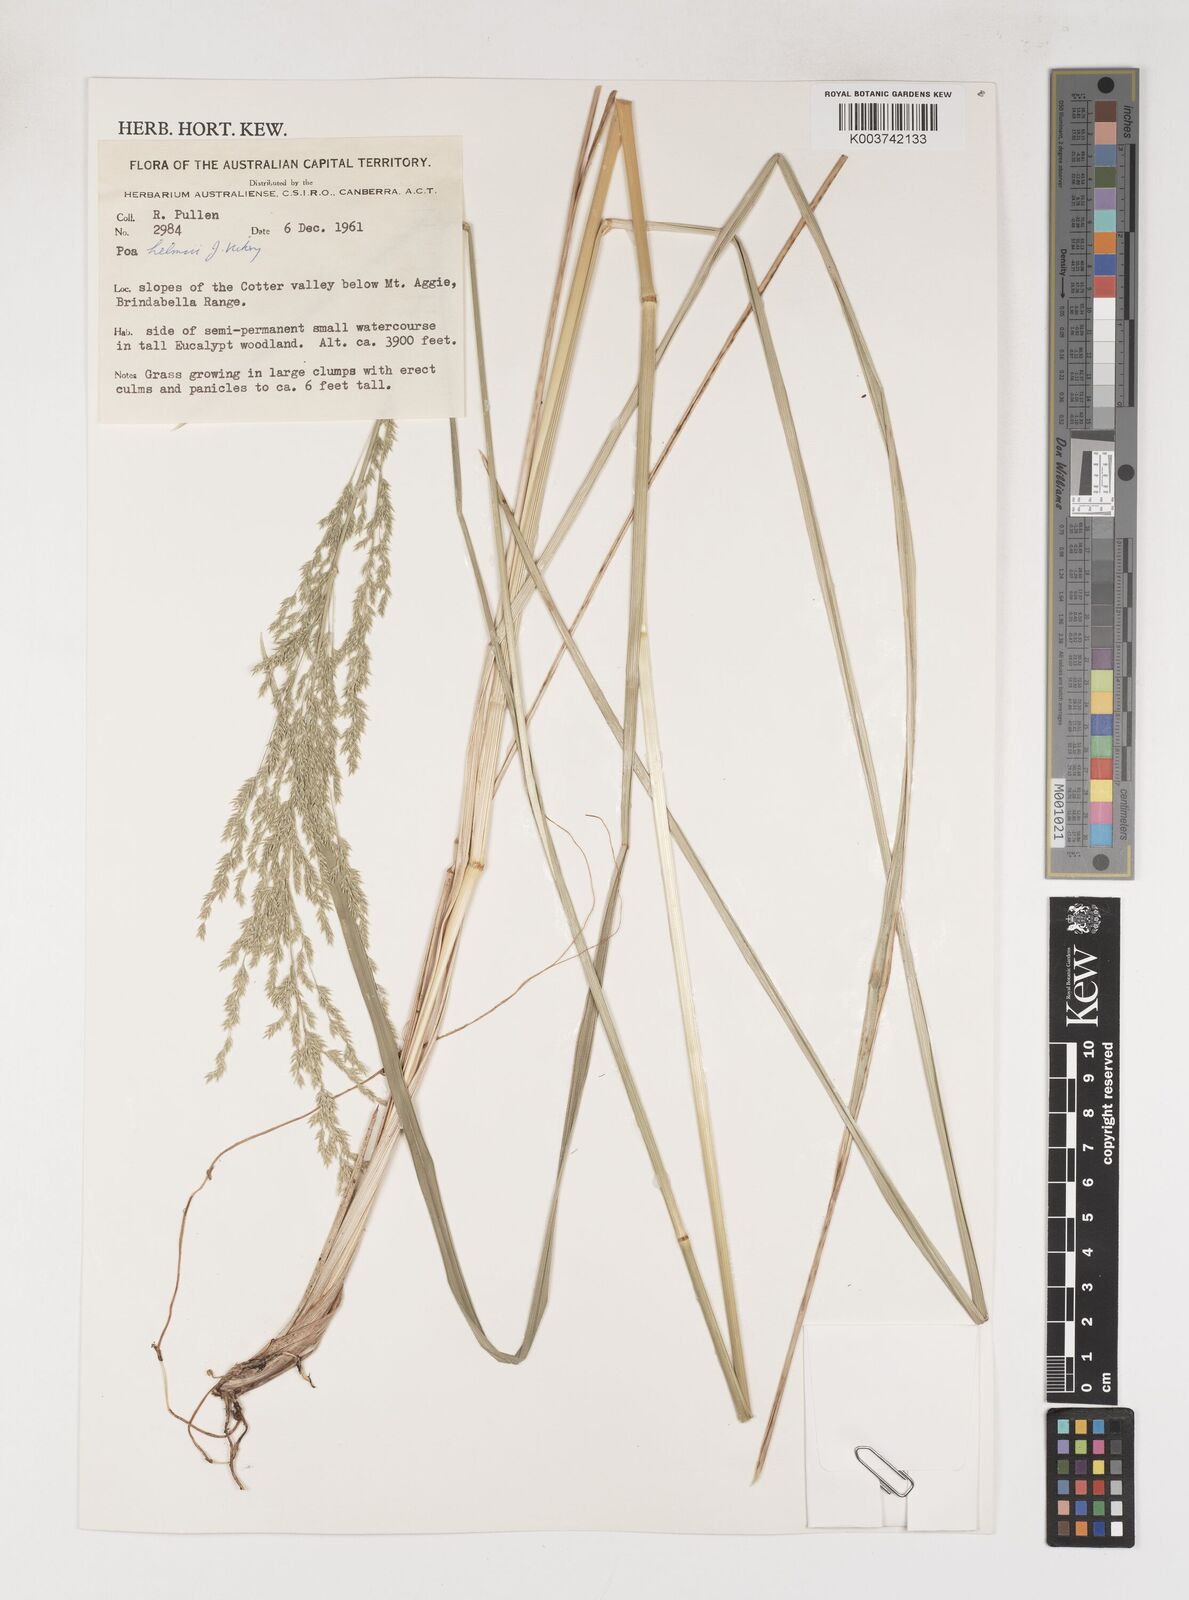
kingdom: Plantae
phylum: Tracheophyta
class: Liliopsida
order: Poales
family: Poaceae
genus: Poa
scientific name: Poa helmsii
